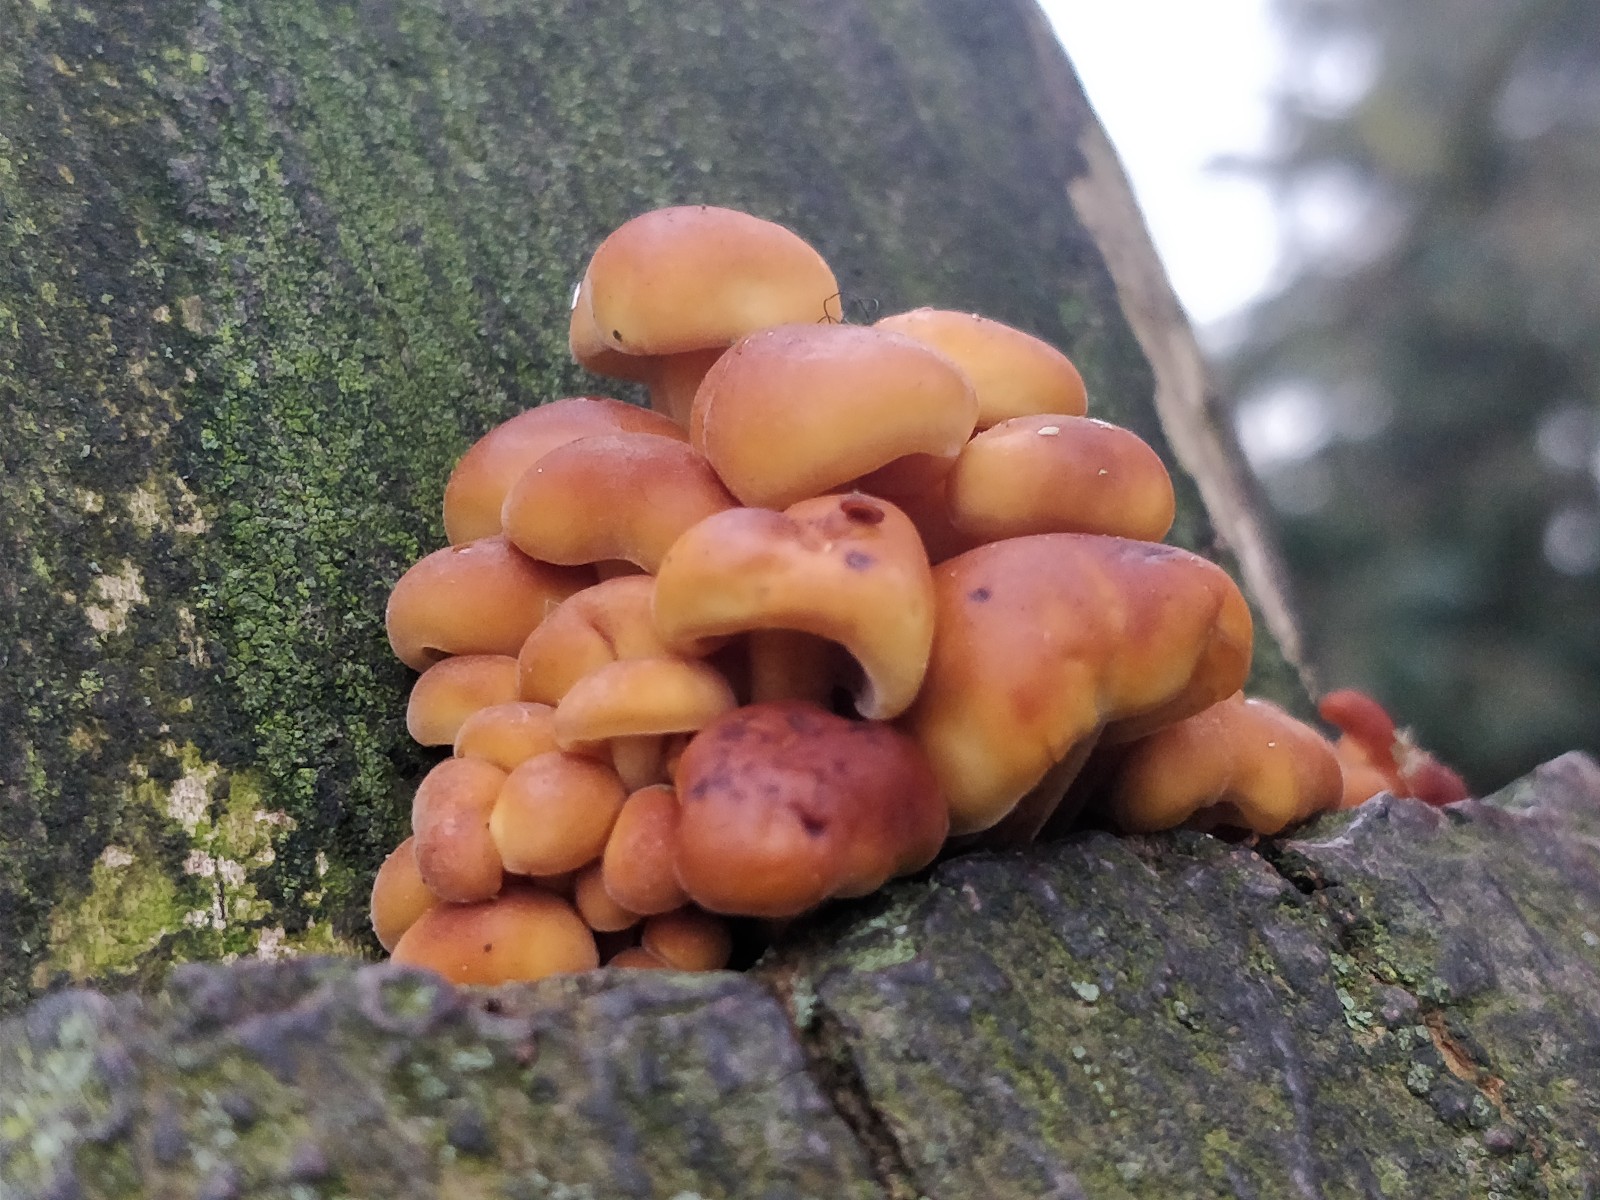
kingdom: Fungi
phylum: Basidiomycota
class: Agaricomycetes
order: Agaricales
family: Physalacriaceae
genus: Flammulina
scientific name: Flammulina velutipes
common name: gul fløjlsfod
